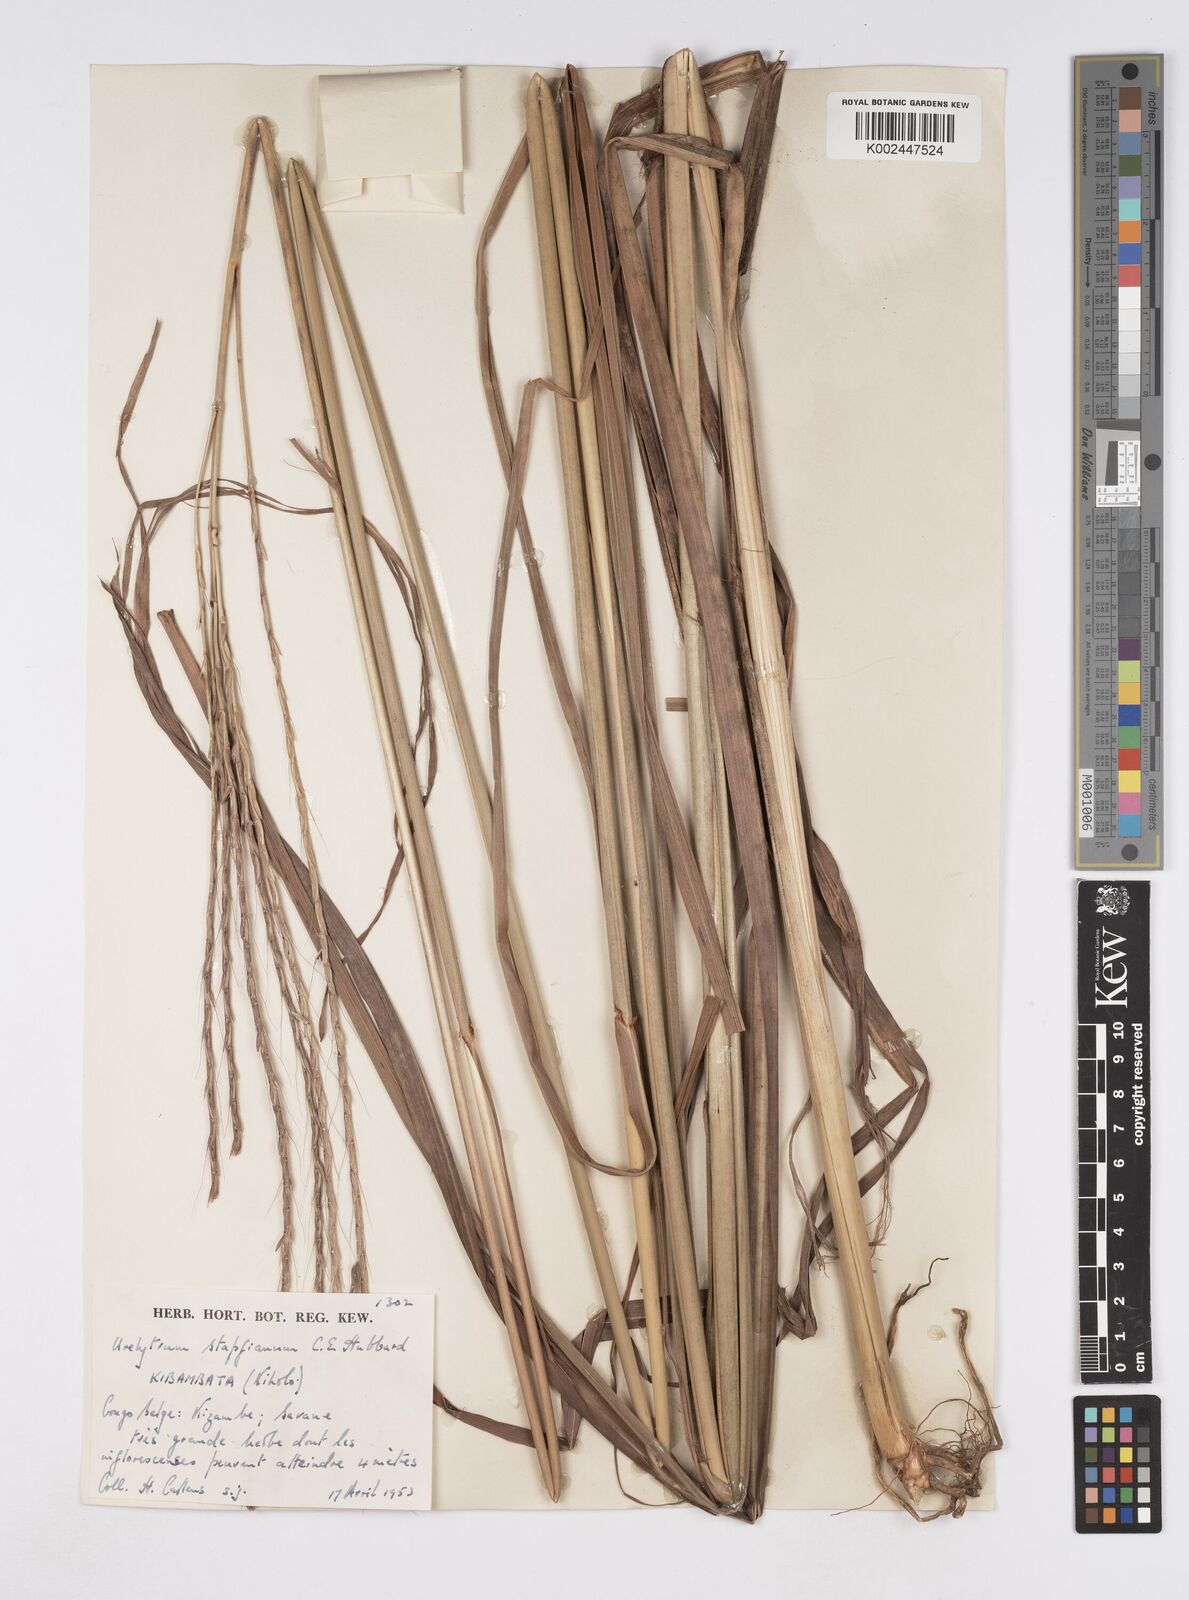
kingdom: Plantae
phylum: Tracheophyta
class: Liliopsida
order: Poales
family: Poaceae
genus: Urelytrum
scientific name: Urelytrum digitatum
